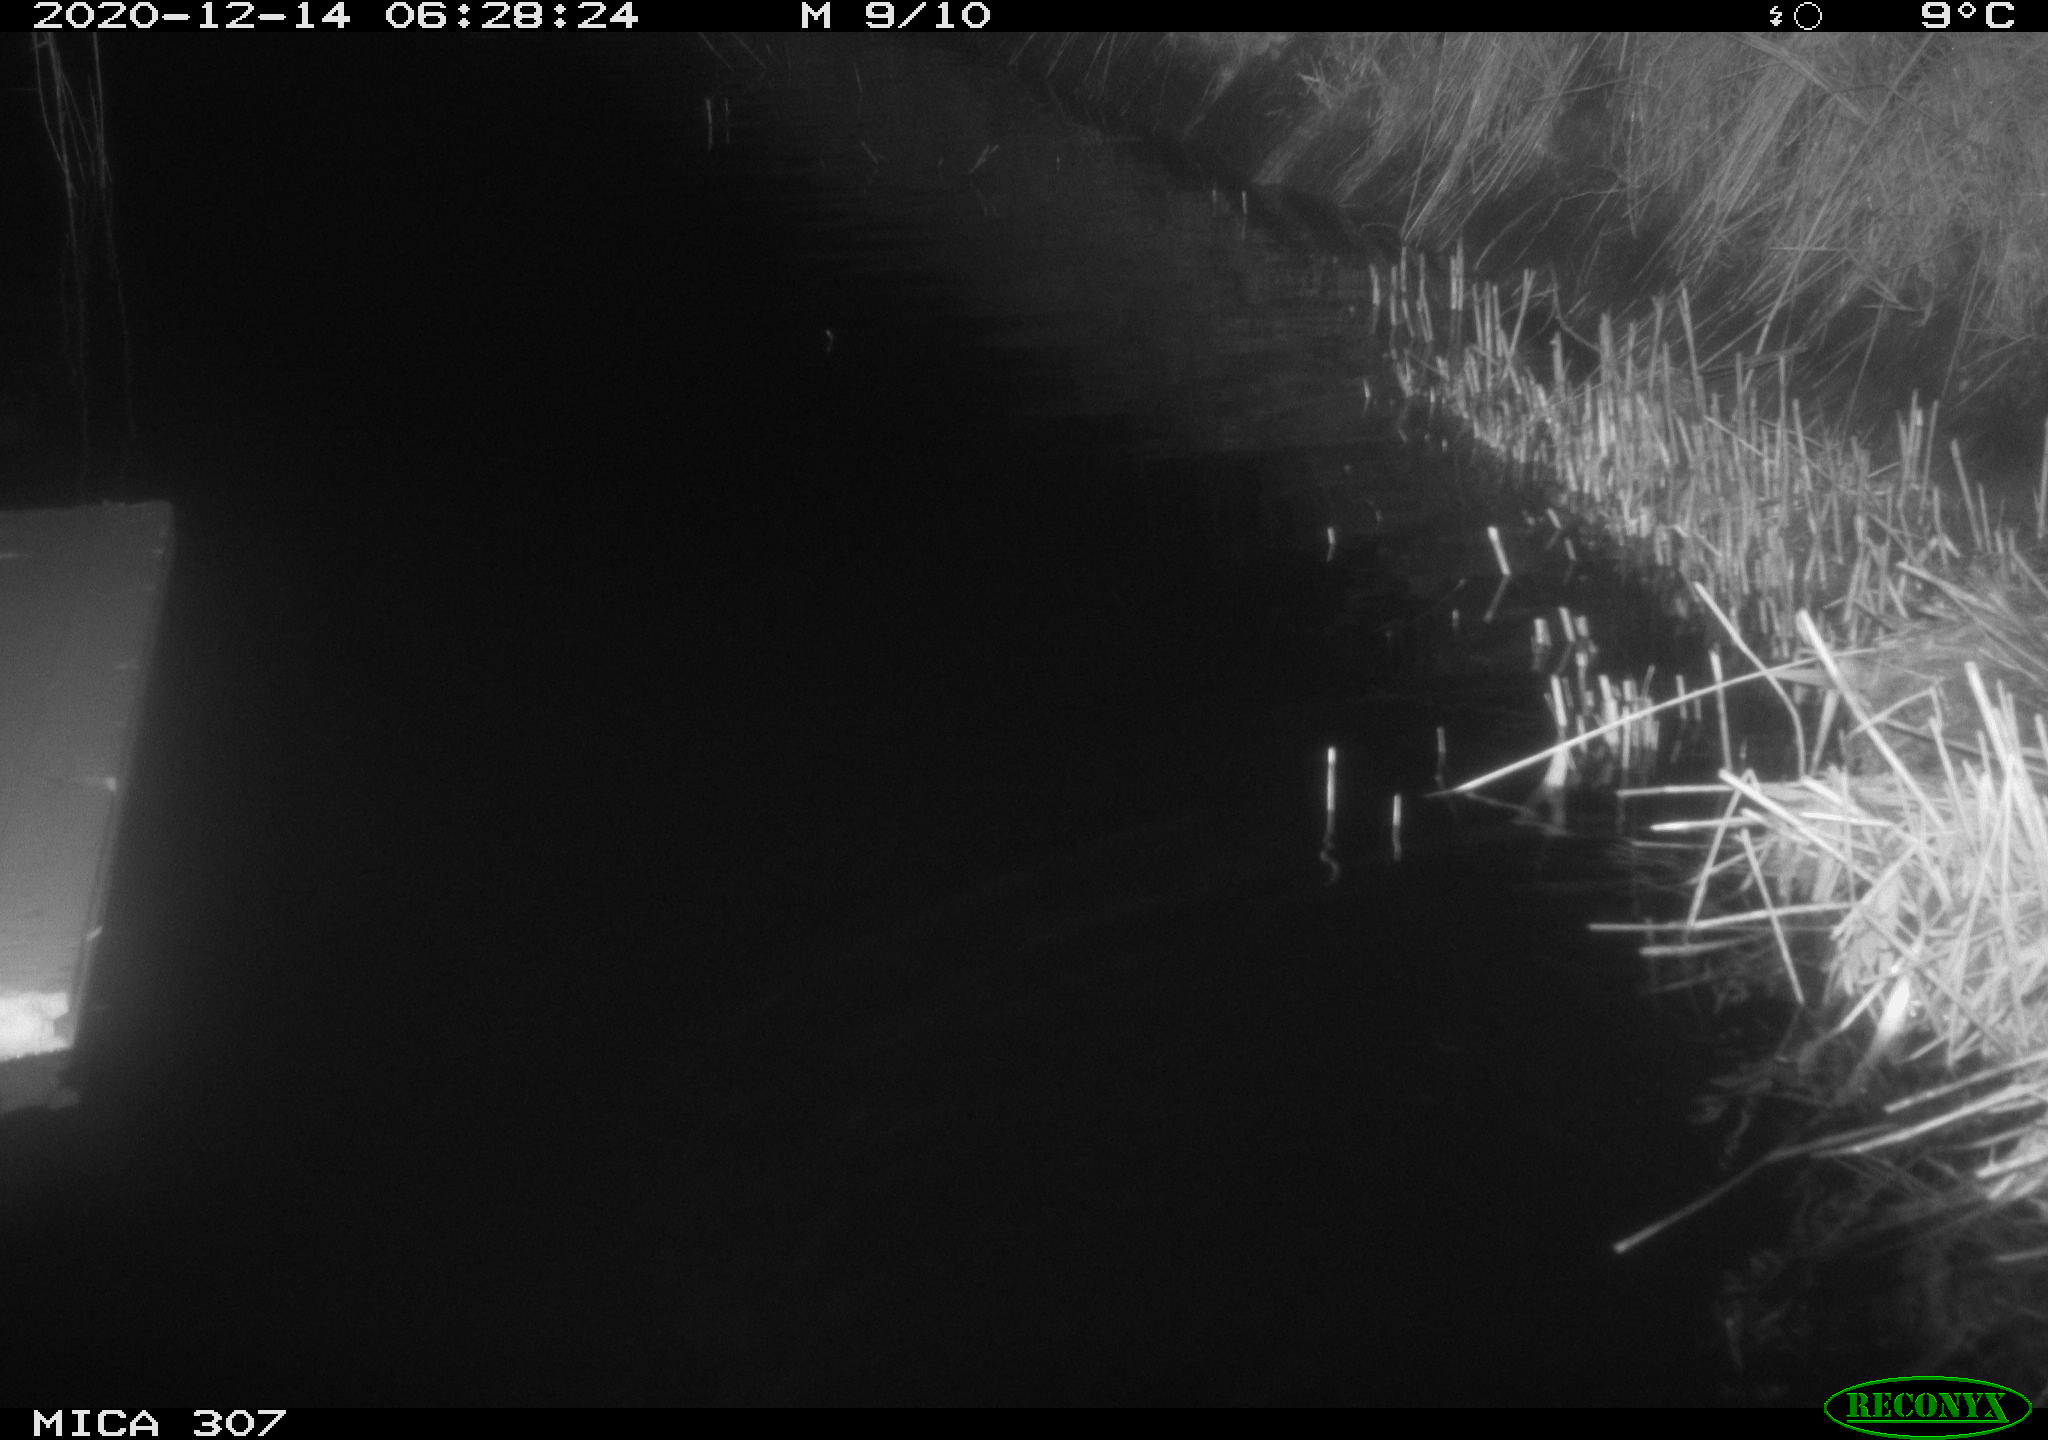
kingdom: Animalia
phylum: Chordata
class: Mammalia
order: Rodentia
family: Muridae
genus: Rattus
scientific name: Rattus norvegicus
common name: Brown rat
